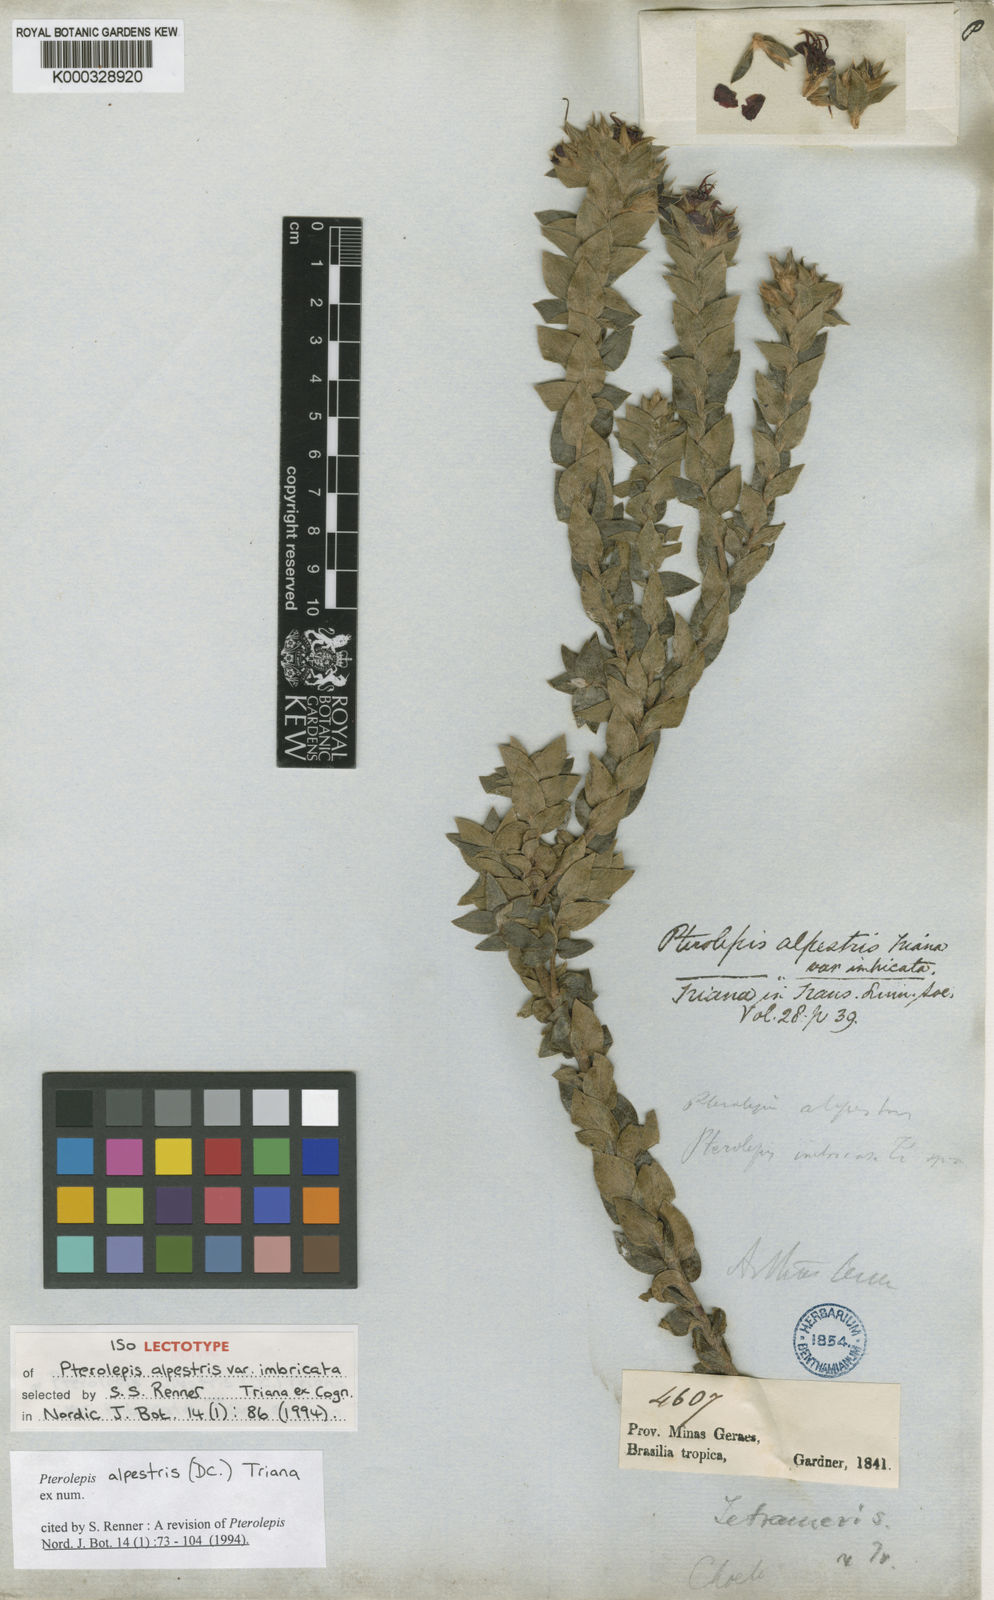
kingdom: Plantae
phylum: Tracheophyta
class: Magnoliopsida
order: Myrtales
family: Melastomataceae
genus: Pterolepis
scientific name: Pterolepis alpestris
